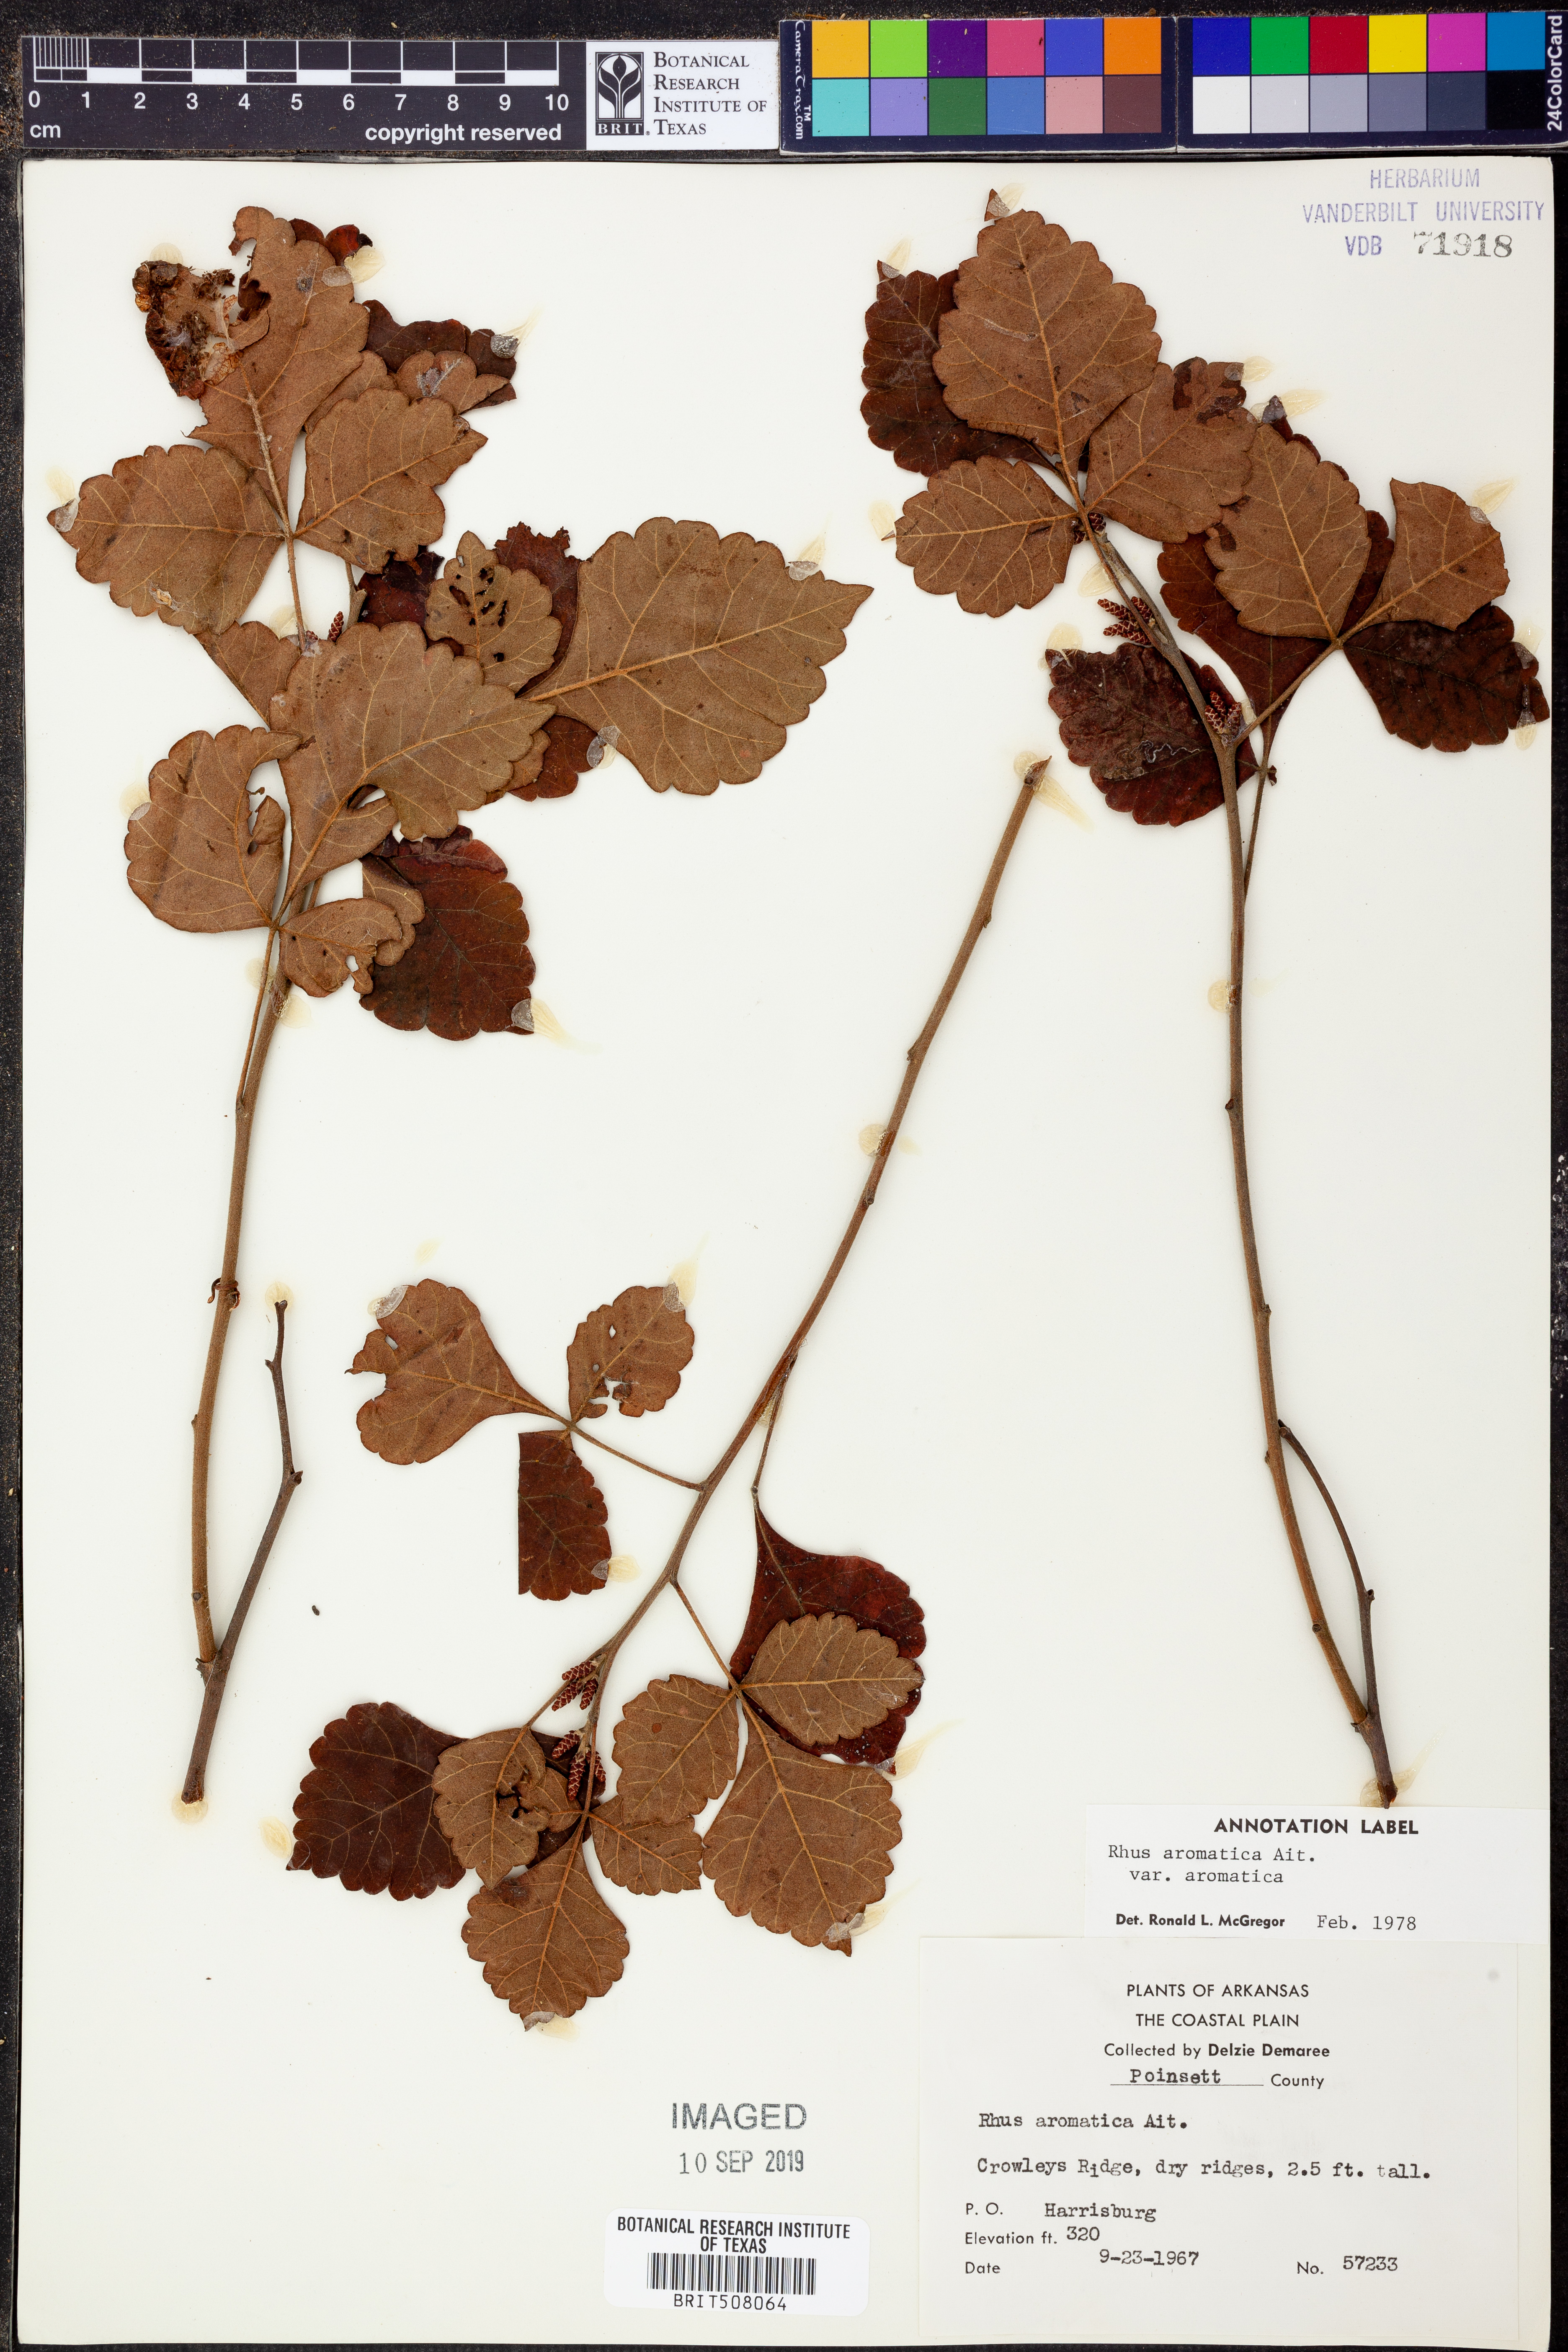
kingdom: Plantae
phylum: Tracheophyta
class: Magnoliopsida
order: Sapindales
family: Anacardiaceae
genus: Rhus
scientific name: Rhus aromatica
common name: Aromatic sumac
